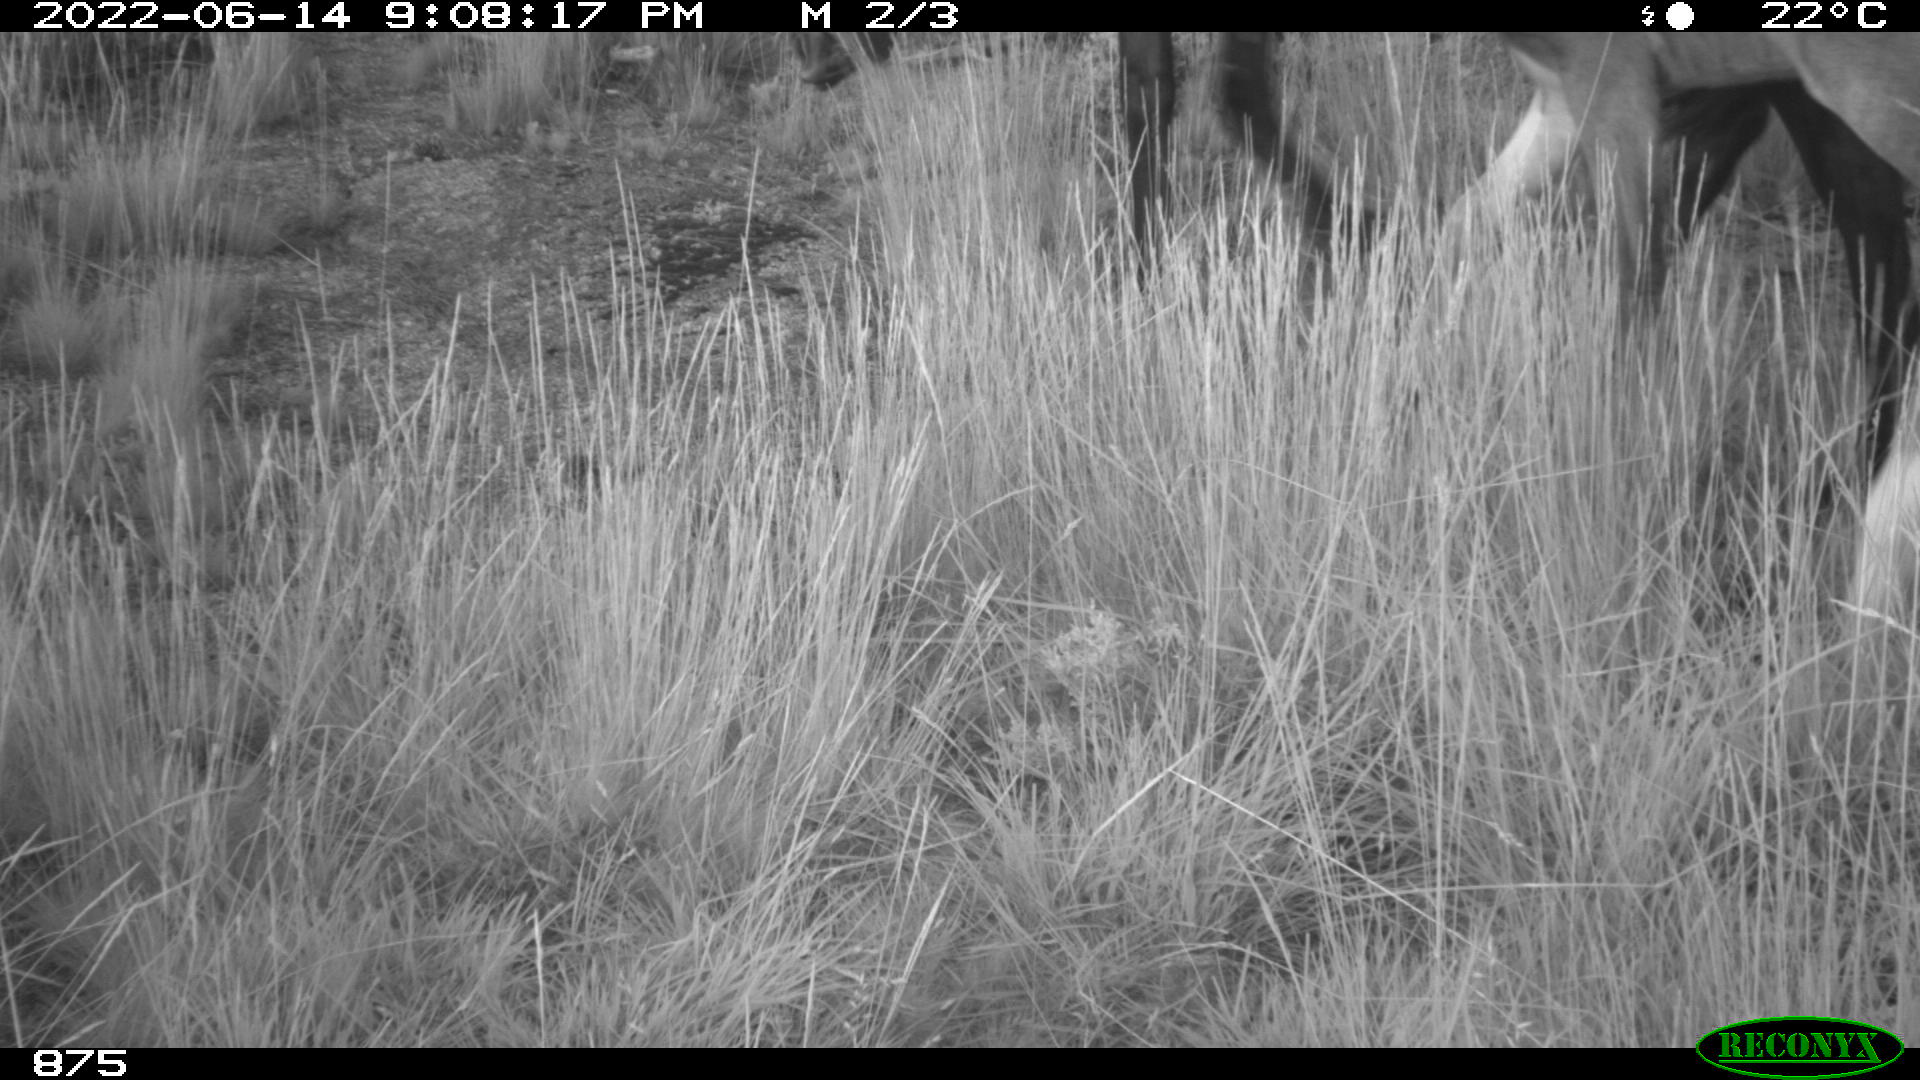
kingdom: Animalia
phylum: Chordata
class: Mammalia
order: Perissodactyla
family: Equidae
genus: Equus
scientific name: Equus caballus
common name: Horse
